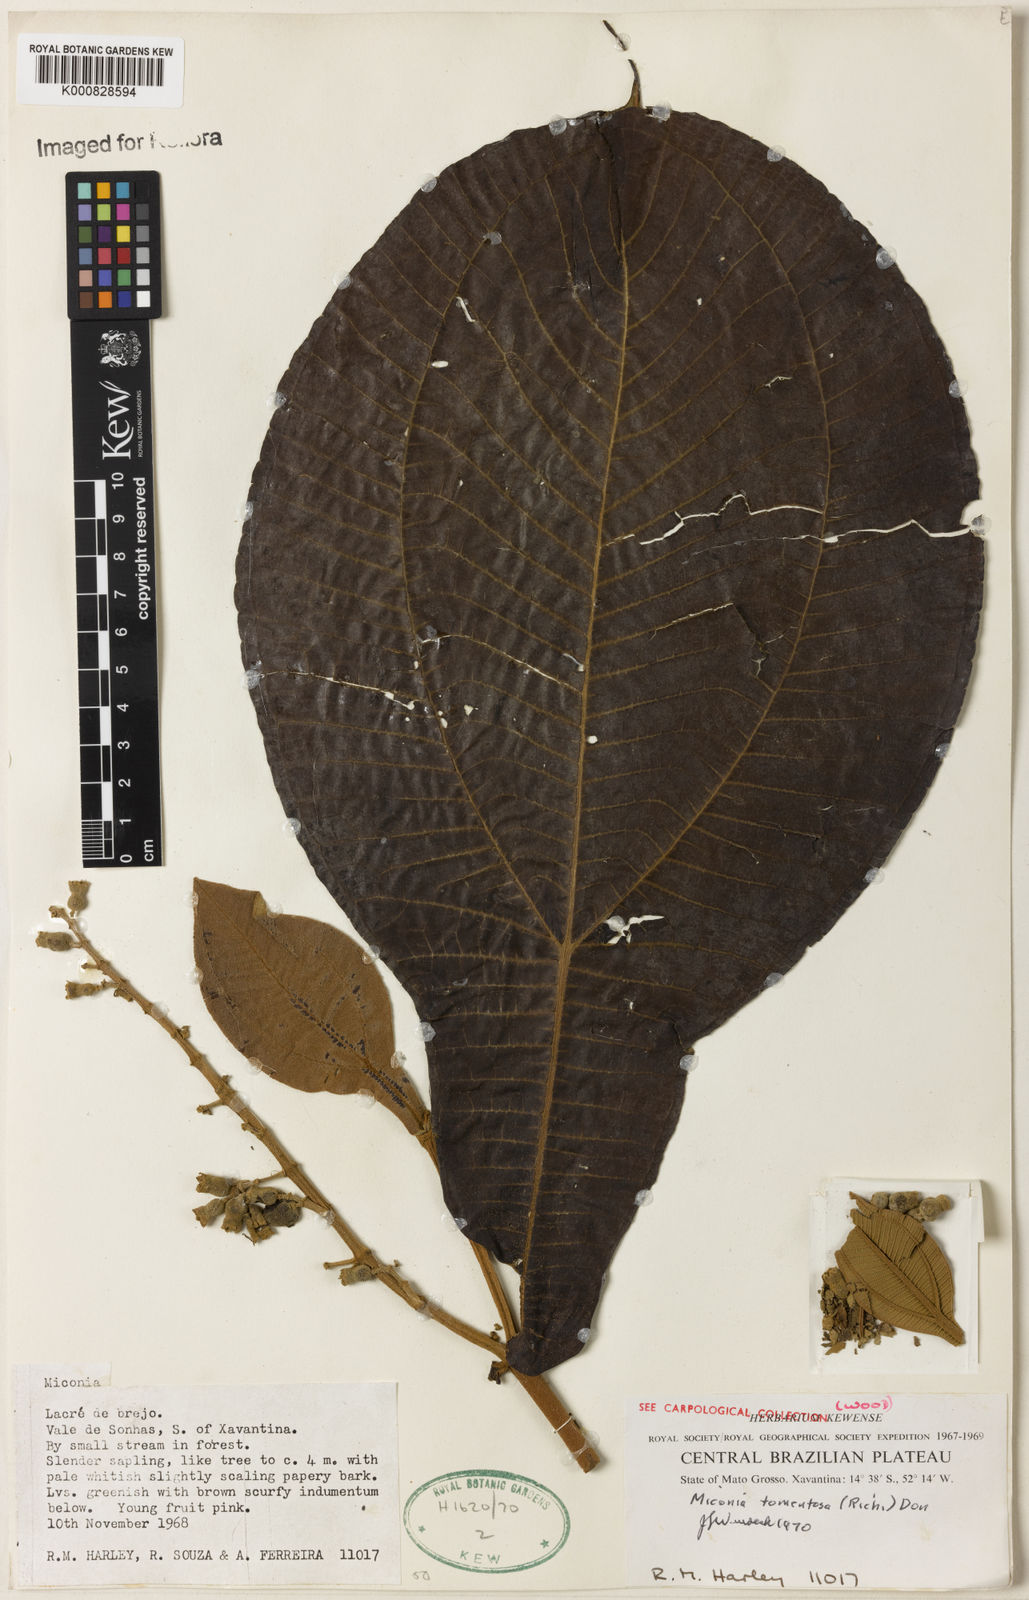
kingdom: Plantae
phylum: Tracheophyta
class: Magnoliopsida
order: Myrtales
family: Melastomataceae
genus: Miconia
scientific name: Miconia tomentosa
